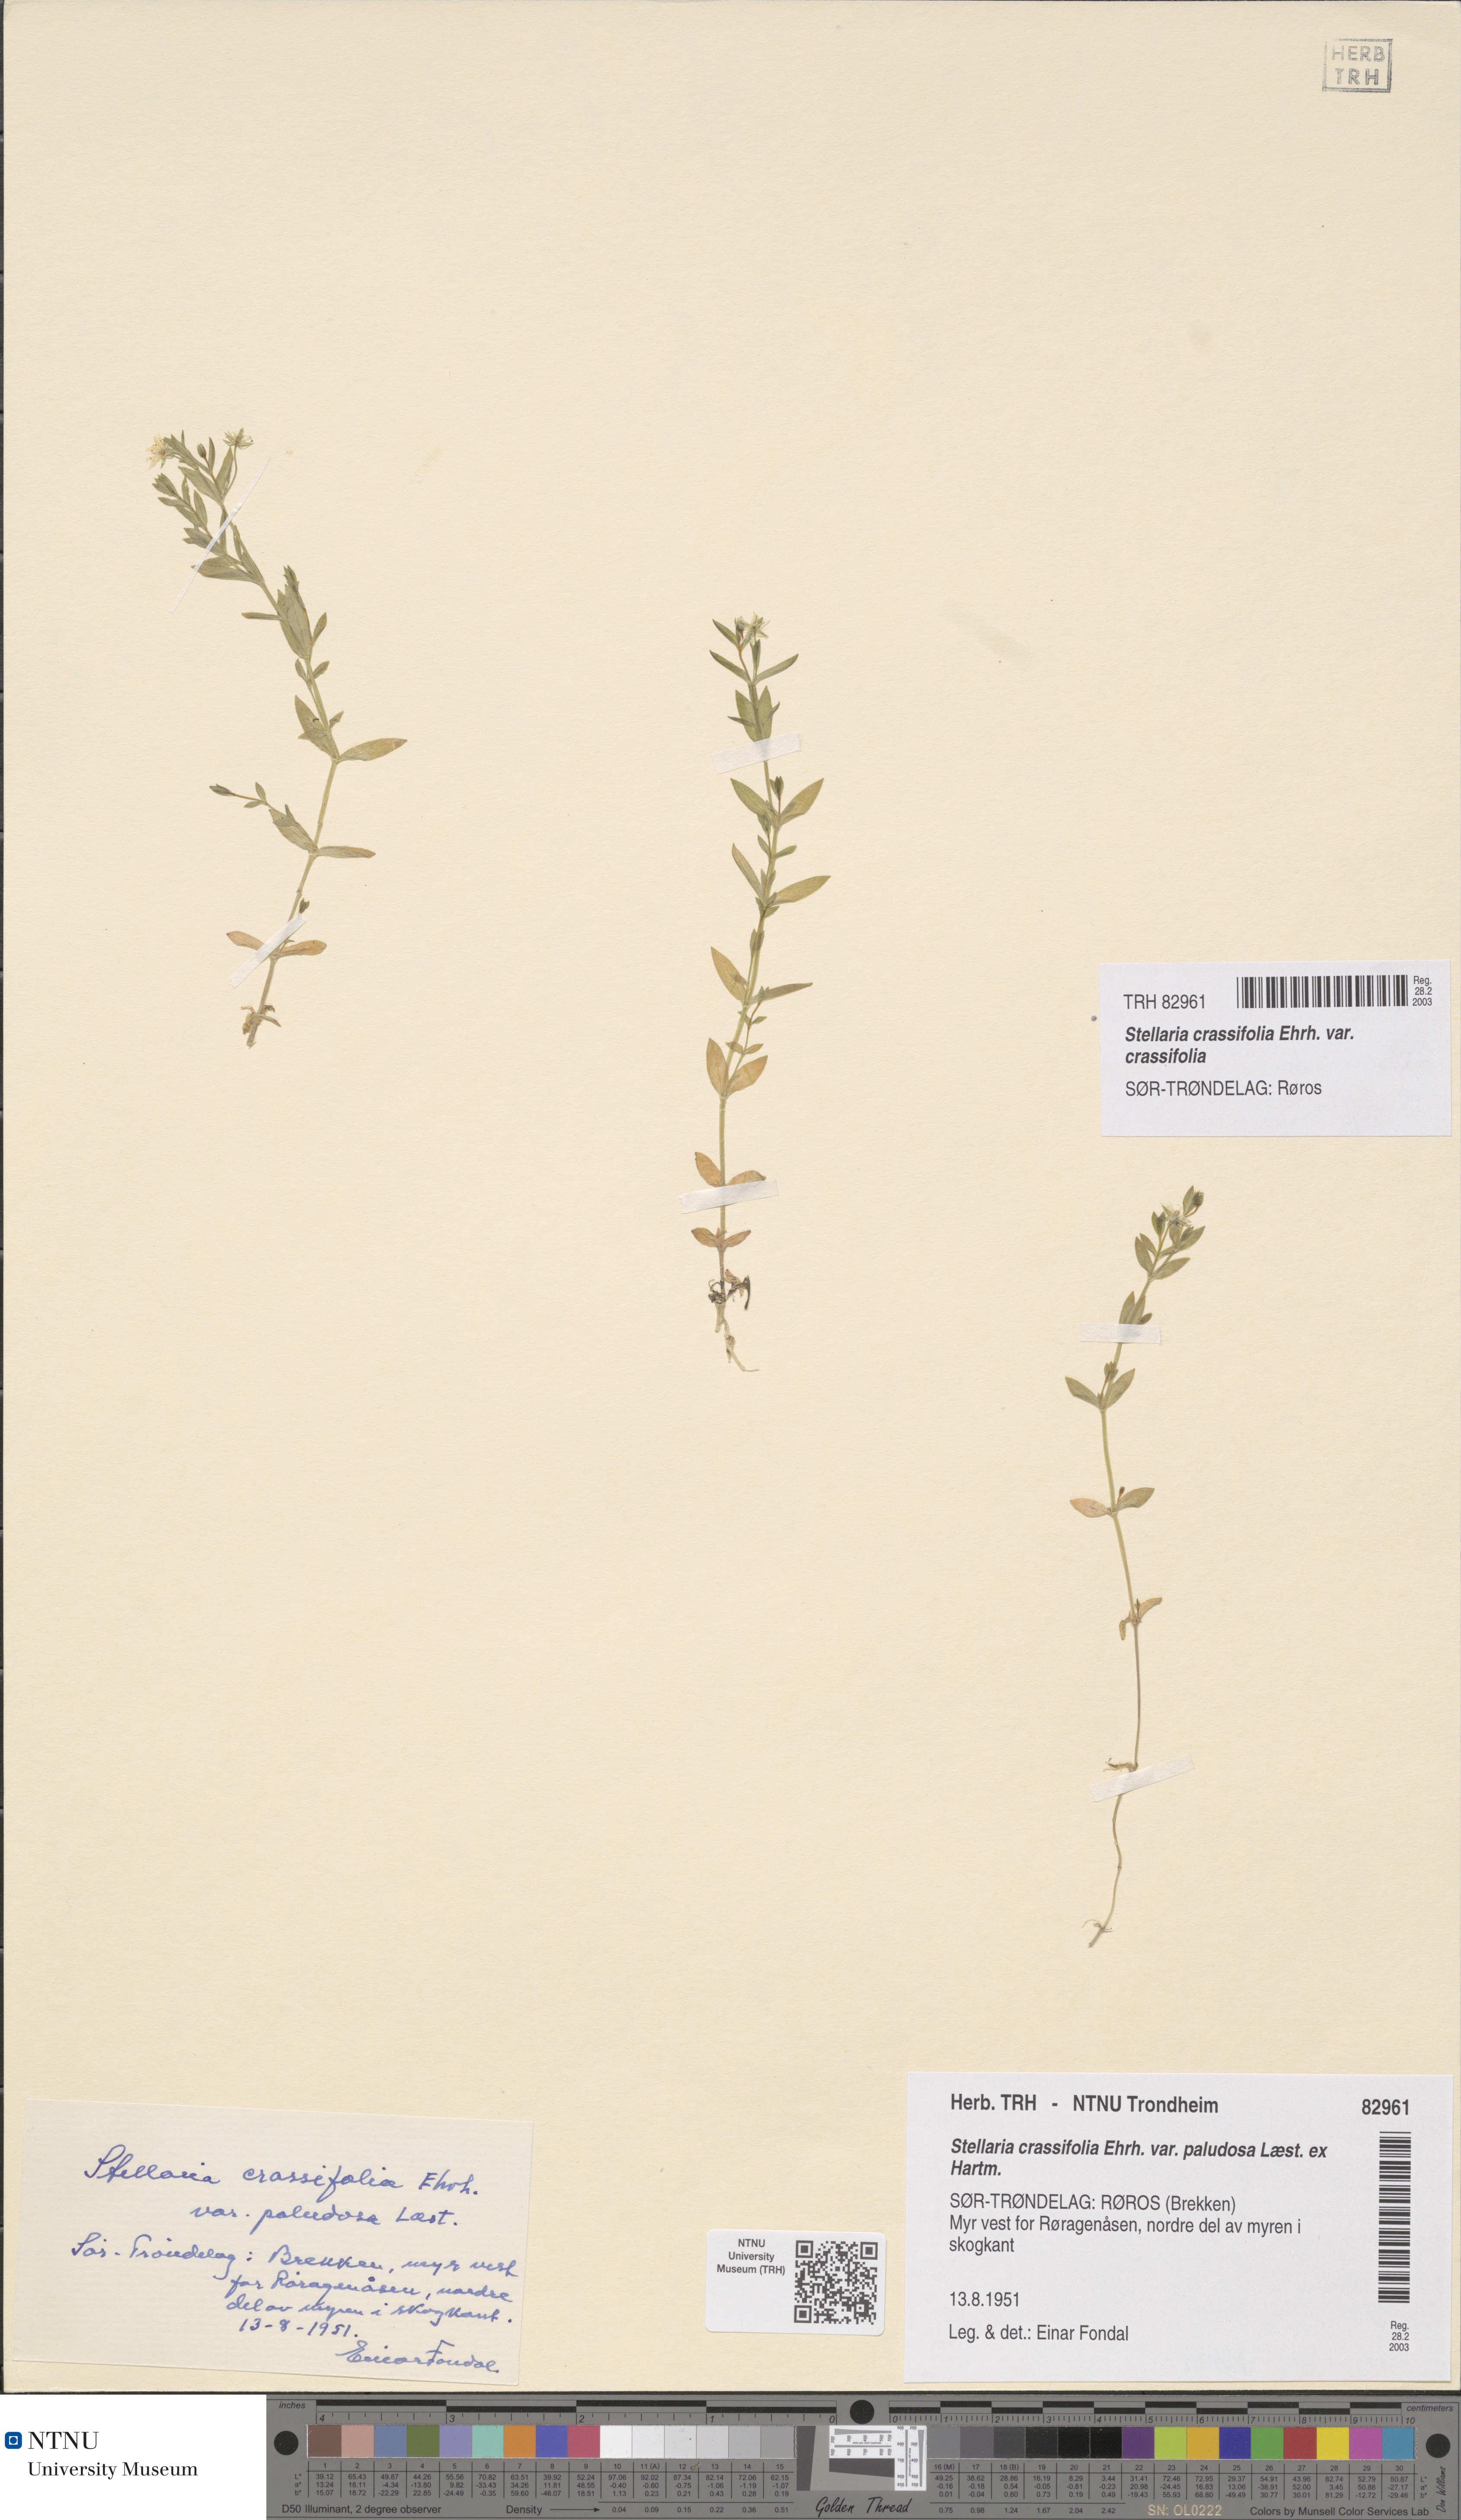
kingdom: Plantae
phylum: Tracheophyta
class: Magnoliopsida
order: Caryophyllales
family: Caryophyllaceae
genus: Stellaria
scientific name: Stellaria crassifolia
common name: Fleshy starwort
